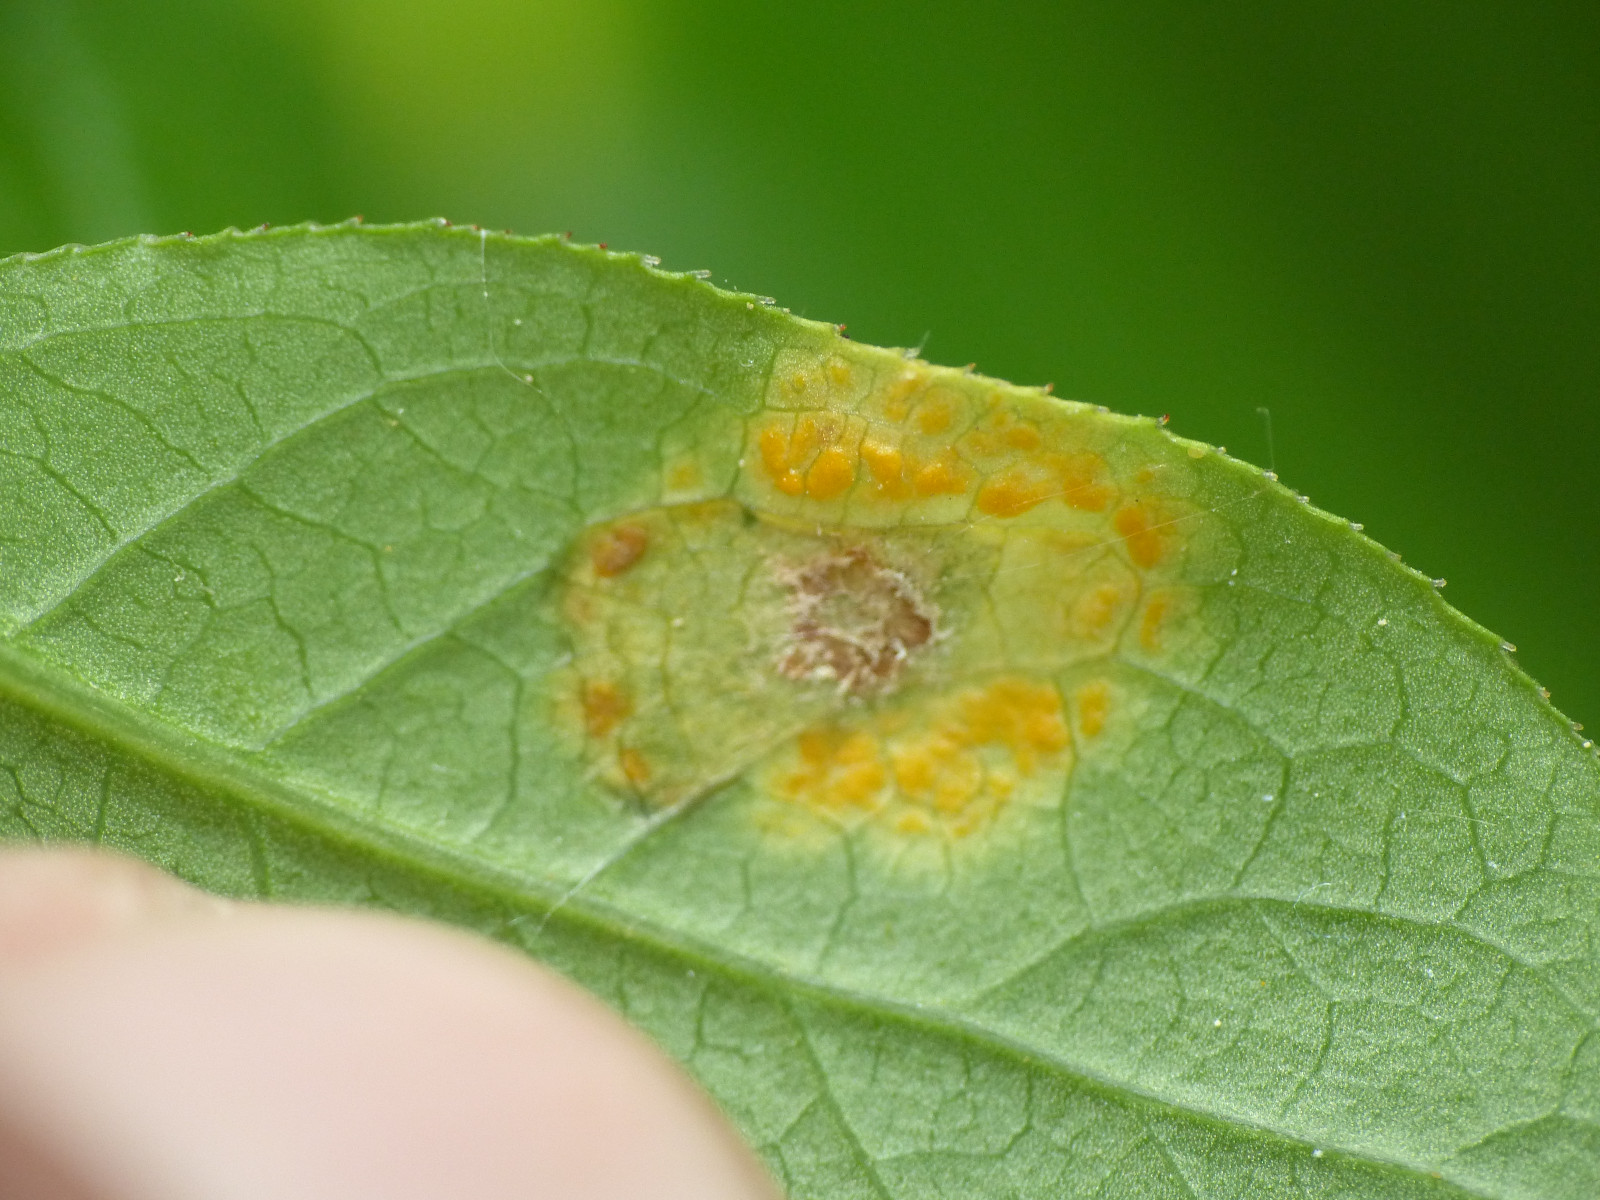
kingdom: Fungi
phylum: Basidiomycota
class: Pucciniomycetes
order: Pucciniales
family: Melampsoraceae
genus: Melampsora
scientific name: Melampsora epitea
